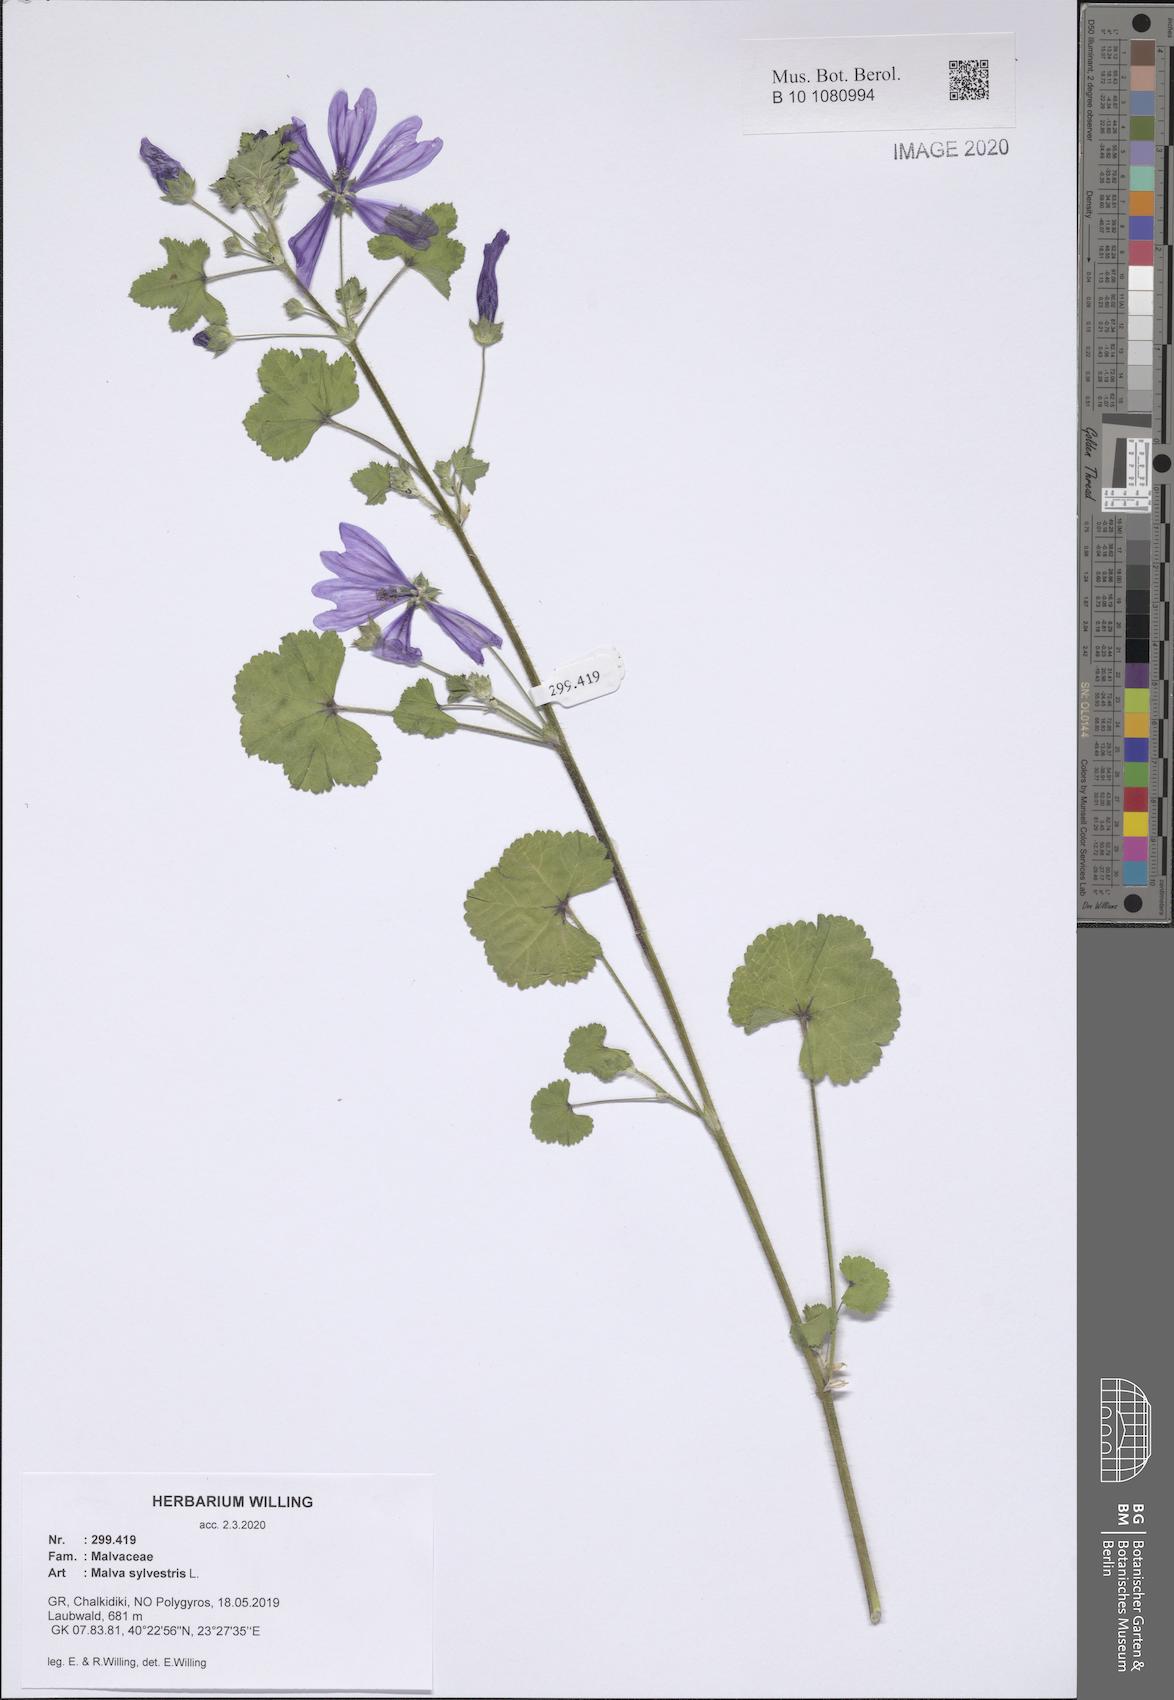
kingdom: Plantae
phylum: Tracheophyta
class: Magnoliopsida
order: Malvales
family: Malvaceae
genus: Malva
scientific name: Malva sylvestris
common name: Common mallow
